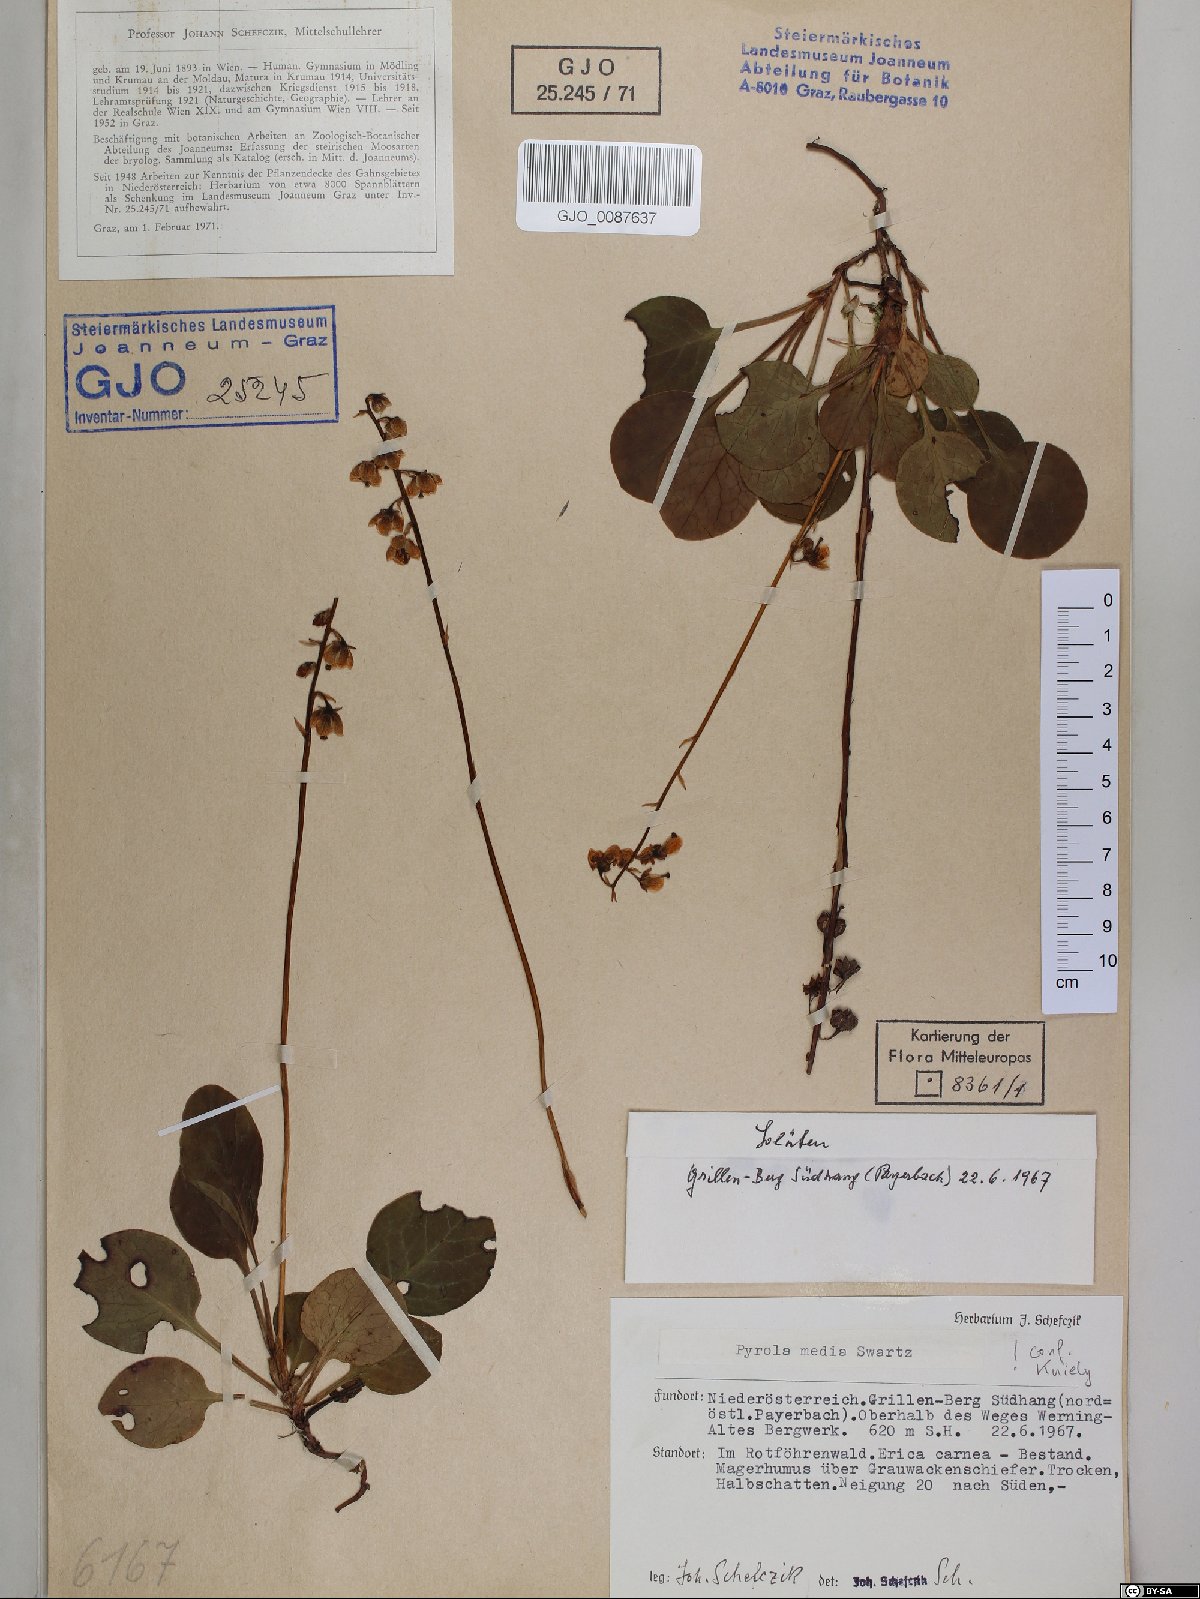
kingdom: Plantae
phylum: Tracheophyta
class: Magnoliopsida
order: Ericales
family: Ericaceae
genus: Pyrola
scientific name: Pyrola media
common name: Intermediate wintergreen
